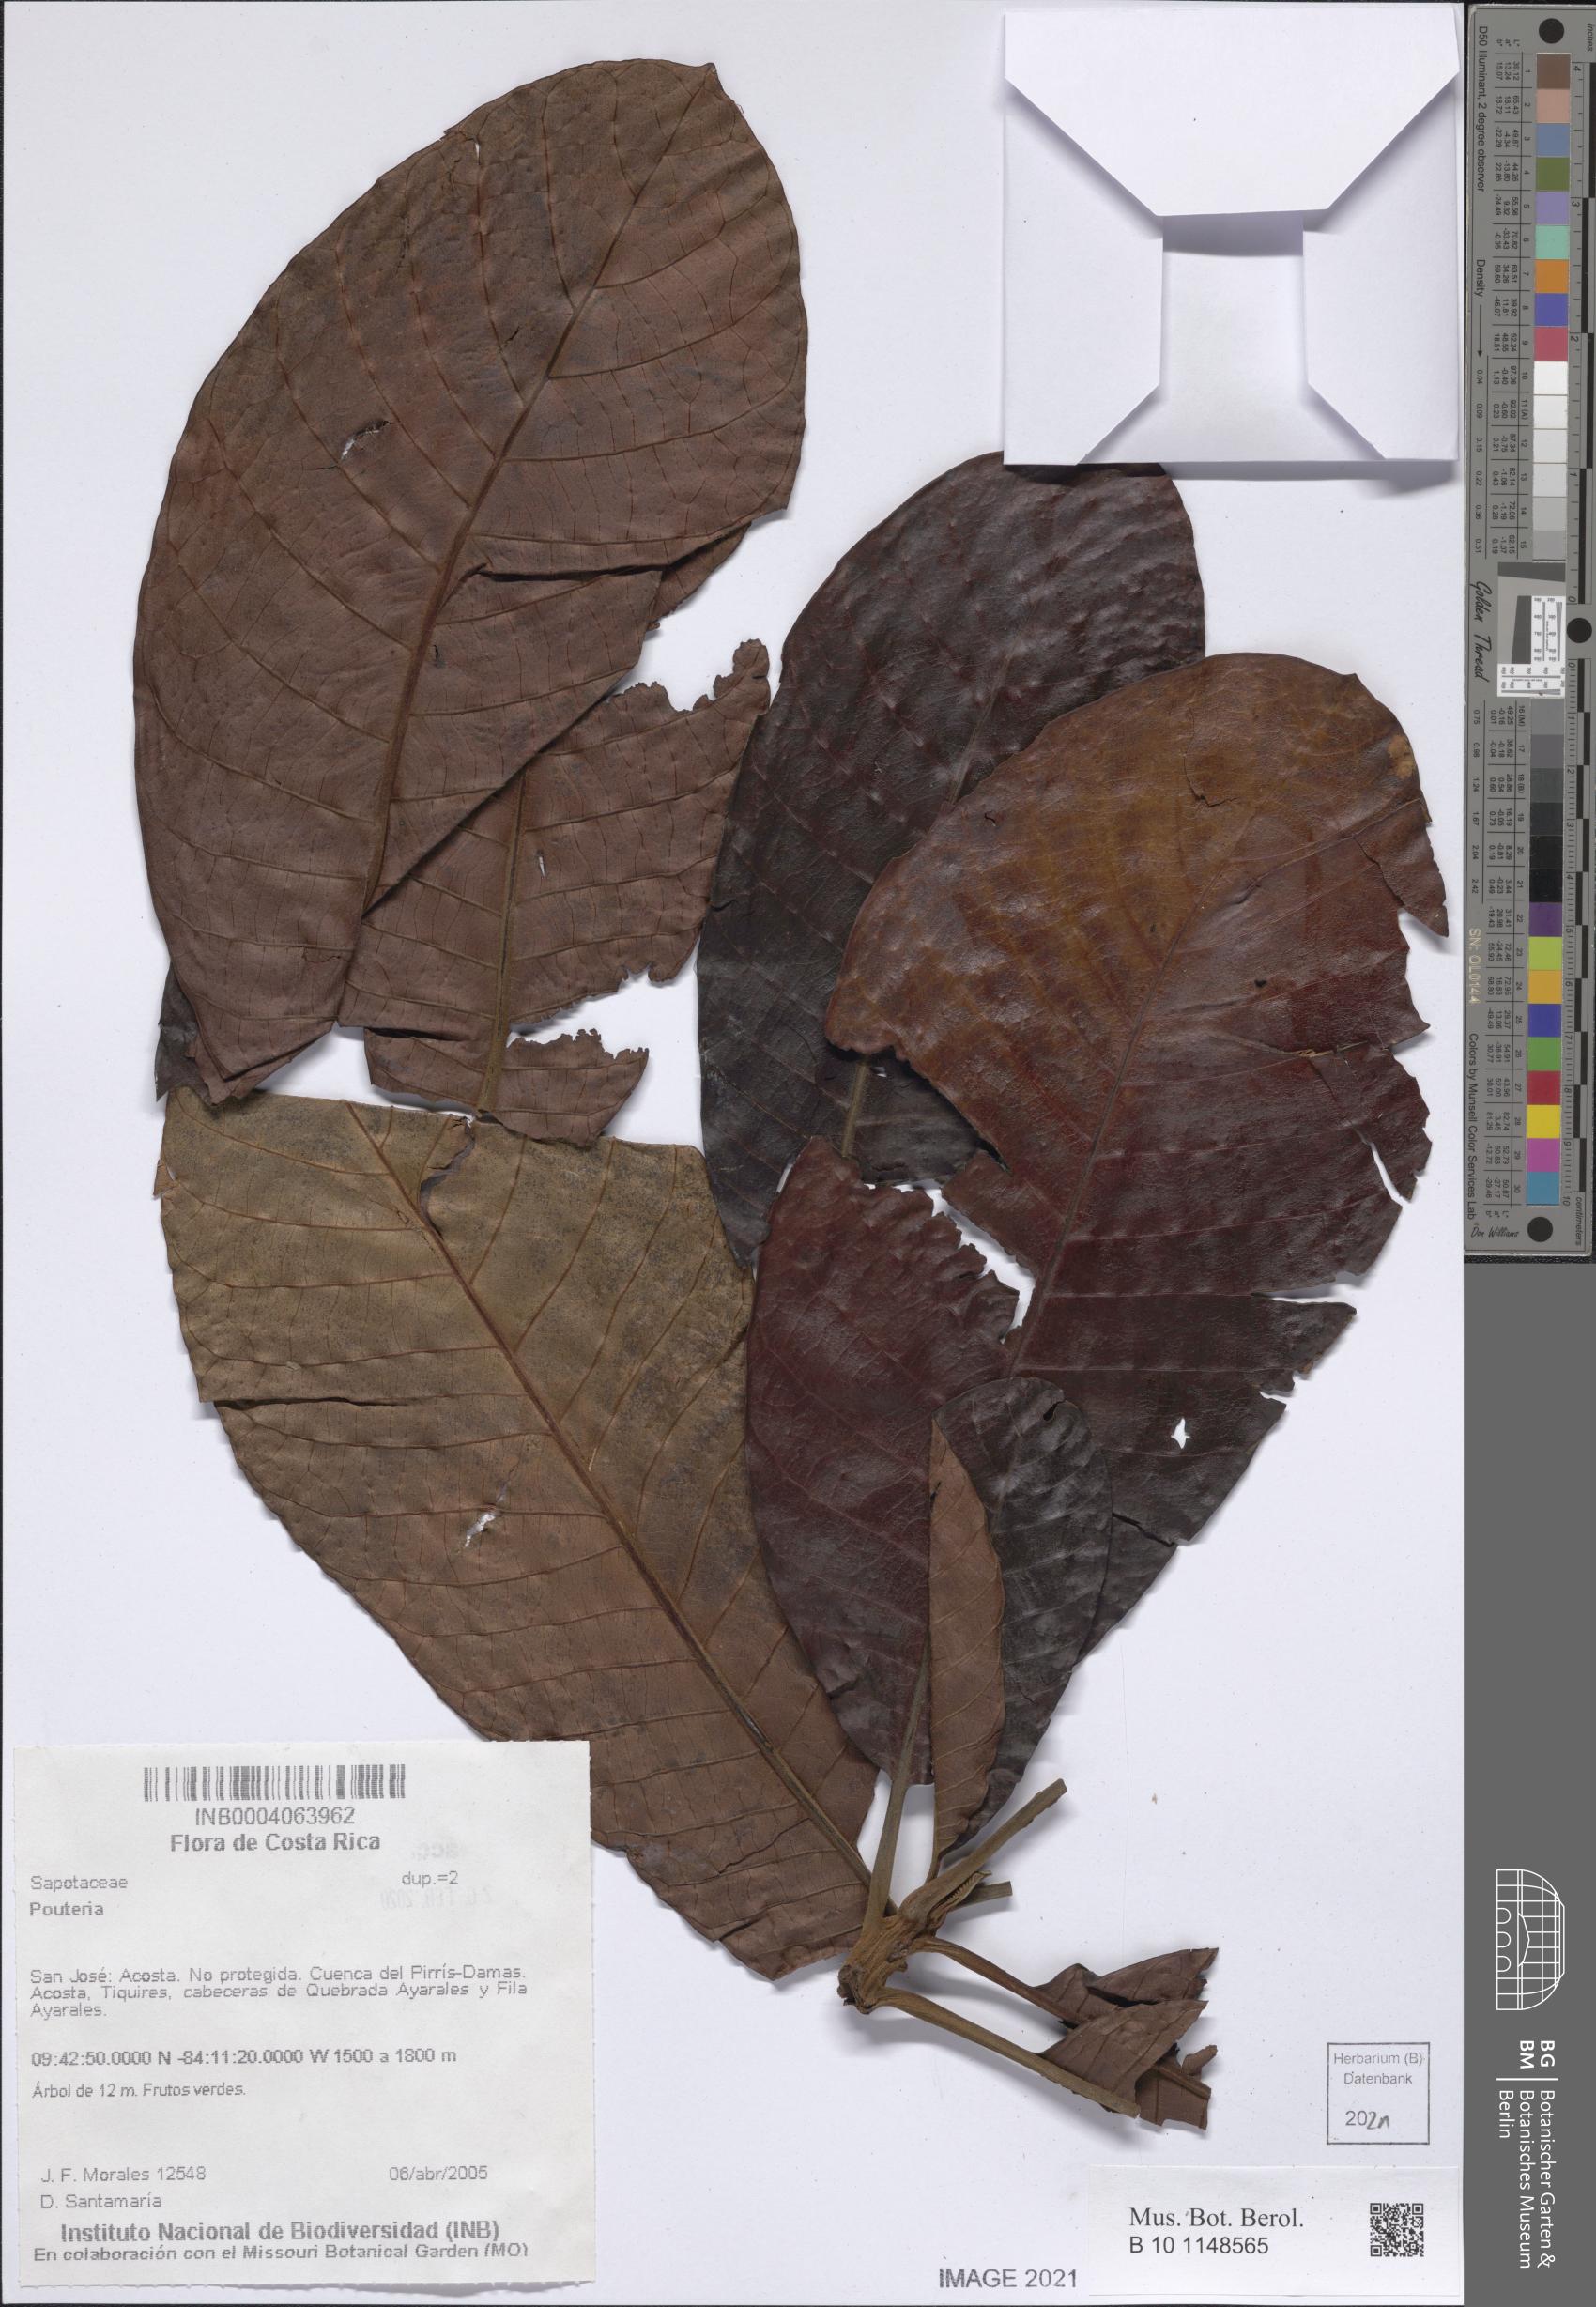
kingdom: Plantae
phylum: Tracheophyta
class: Magnoliopsida
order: Ericales
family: Sapotaceae
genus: Pouteria
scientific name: Pouteria
